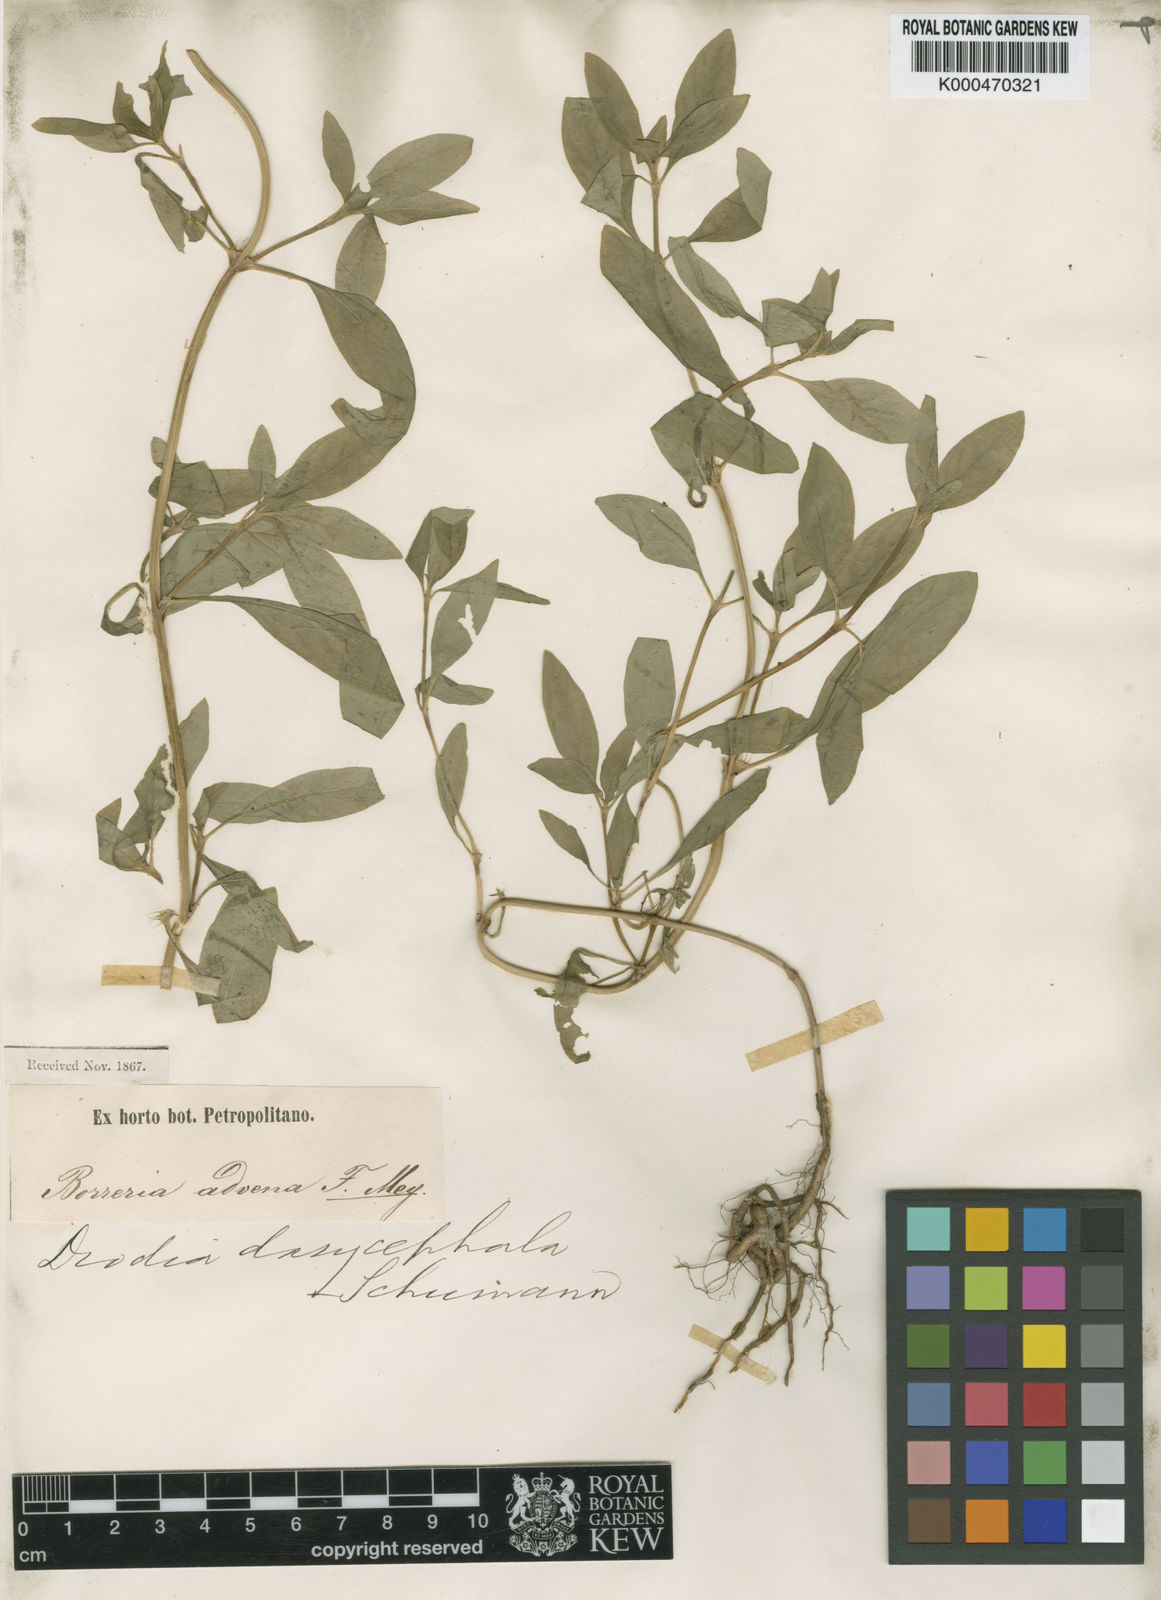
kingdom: Plantae
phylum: Tracheophyta
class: Magnoliopsida
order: Gentianales
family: Rubiaceae
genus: Spermacoce
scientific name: Spermacoce dasycephala
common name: False buttonweed
